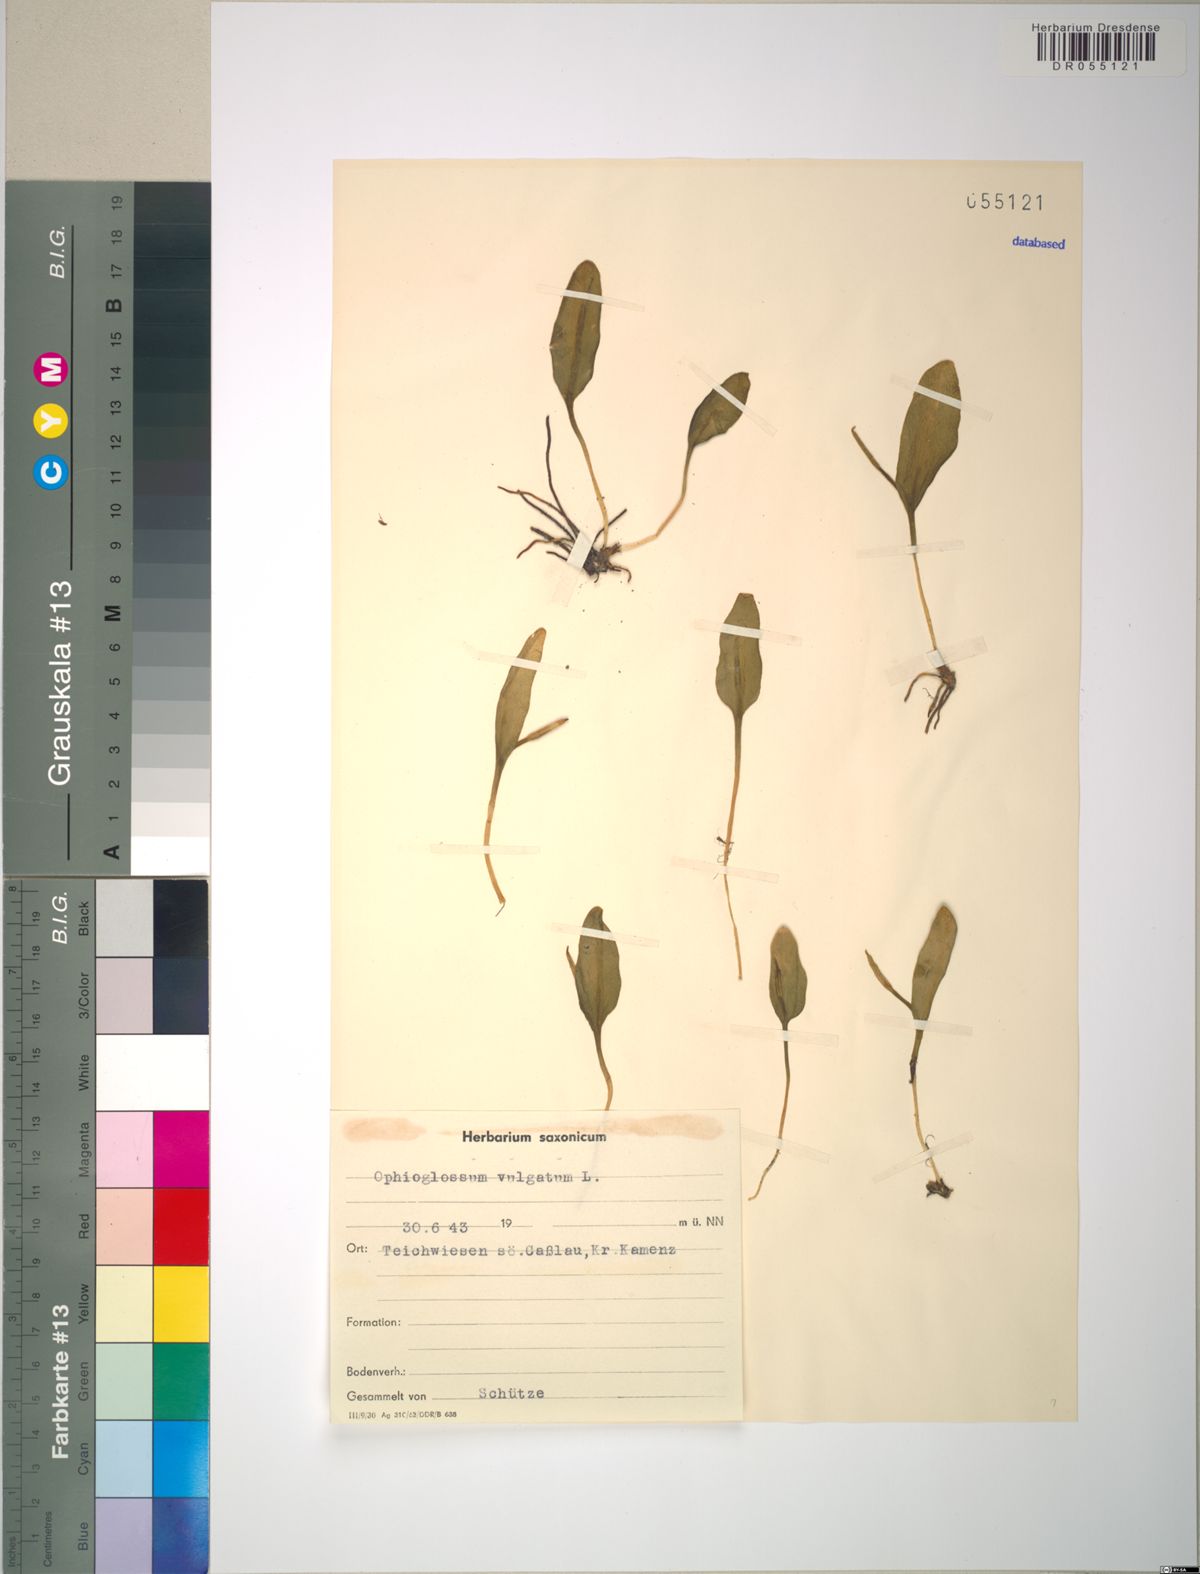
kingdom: Plantae
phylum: Tracheophyta
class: Polypodiopsida
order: Ophioglossales
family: Ophioglossaceae
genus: Ophioglossum
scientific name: Ophioglossum vulgatum
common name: Adder's-tongue
